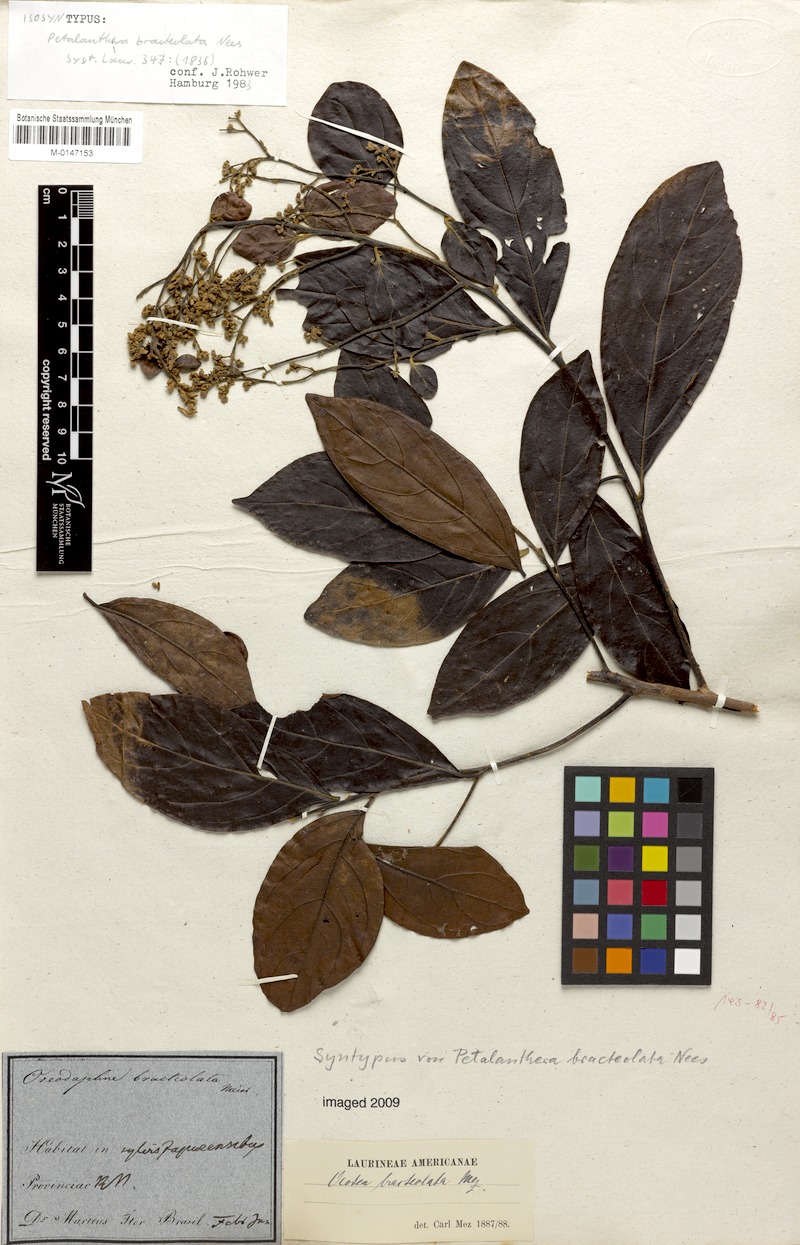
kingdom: Plantae
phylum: Tracheophyta
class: Magnoliopsida
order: Laurales
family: Lauraceae
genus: Ocotea
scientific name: Ocotea petalanthera
